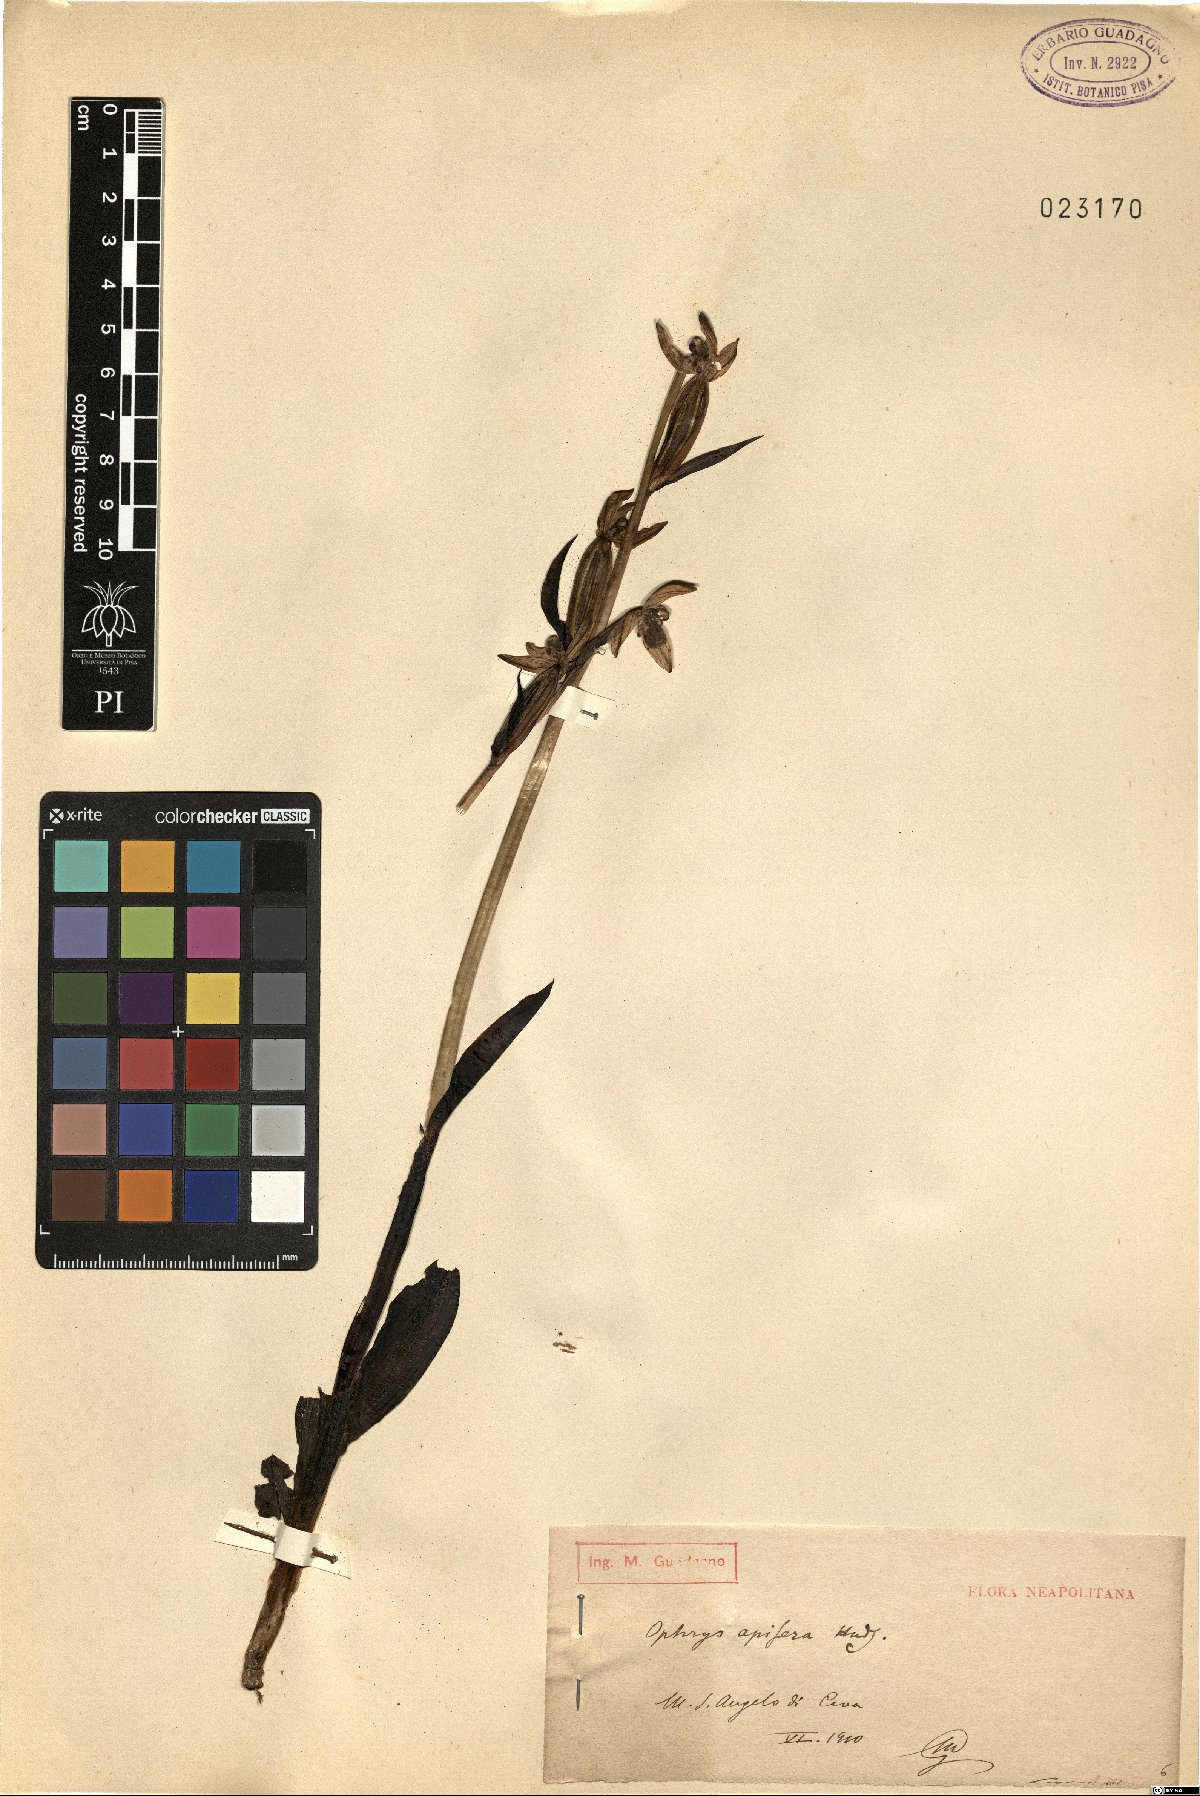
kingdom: Plantae
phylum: Tracheophyta
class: Liliopsida
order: Asparagales
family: Orchidaceae
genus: Ophrys
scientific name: Ophrys apifera
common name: Bee orchid
